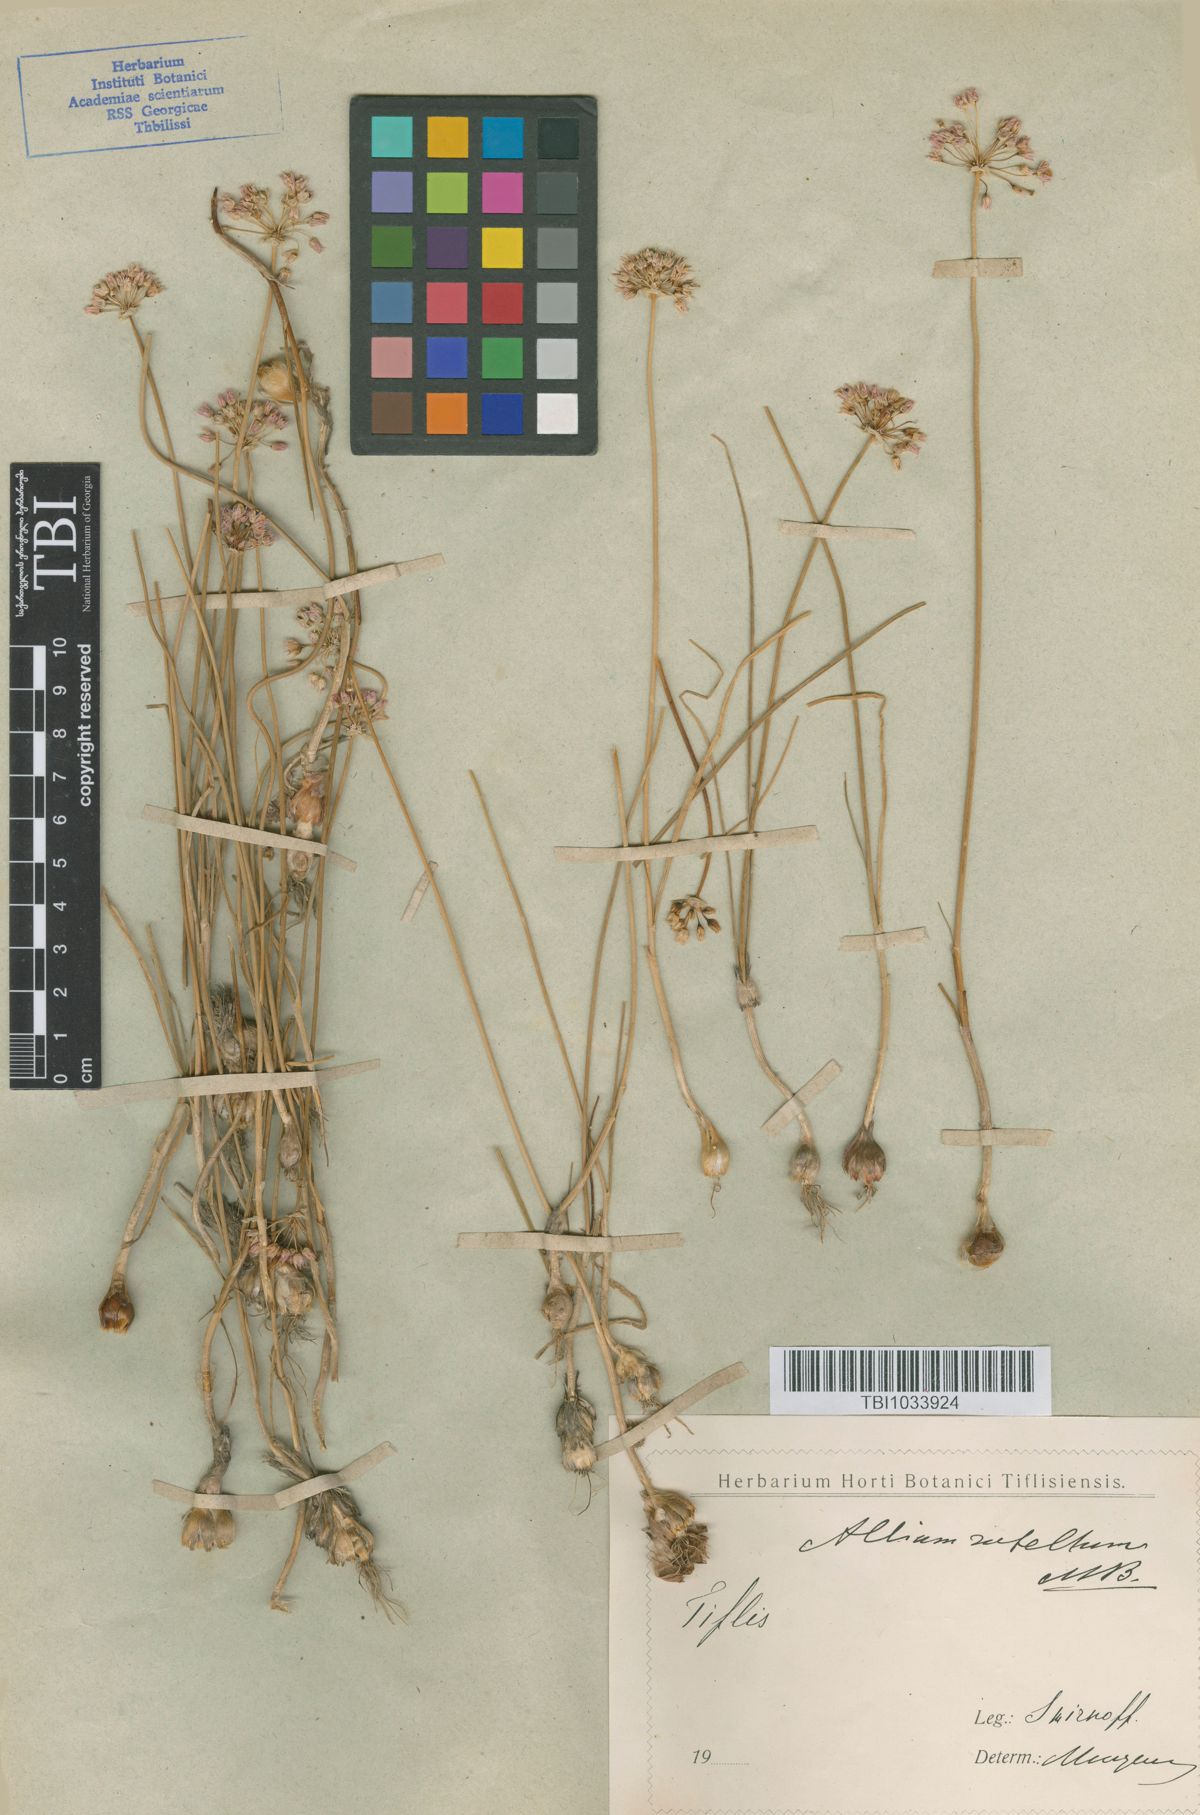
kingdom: Plantae
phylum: Tracheophyta
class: Liliopsida
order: Asparagales
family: Amaryllidaceae
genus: Allium
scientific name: Allium rubellum
